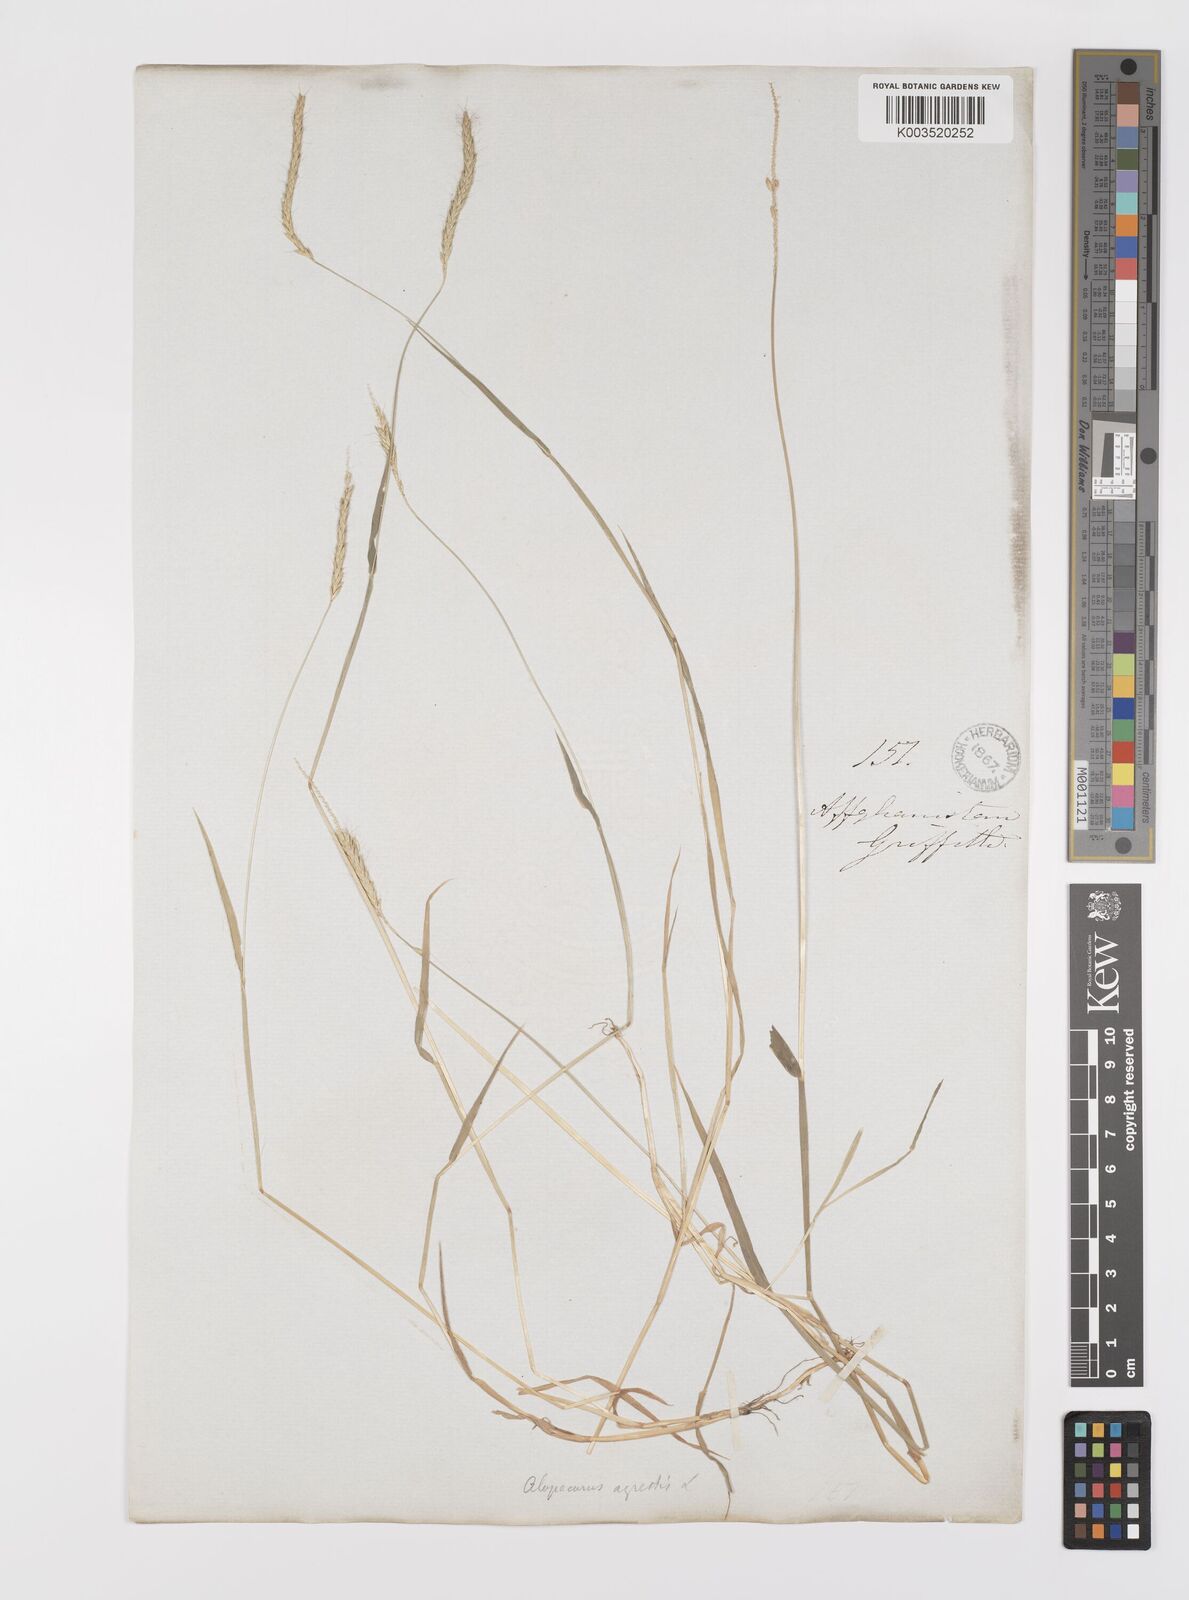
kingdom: Plantae
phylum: Tracheophyta
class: Liliopsida
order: Poales
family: Poaceae
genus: Alopecurus
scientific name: Alopecurus myosuroides
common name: Black-grass
